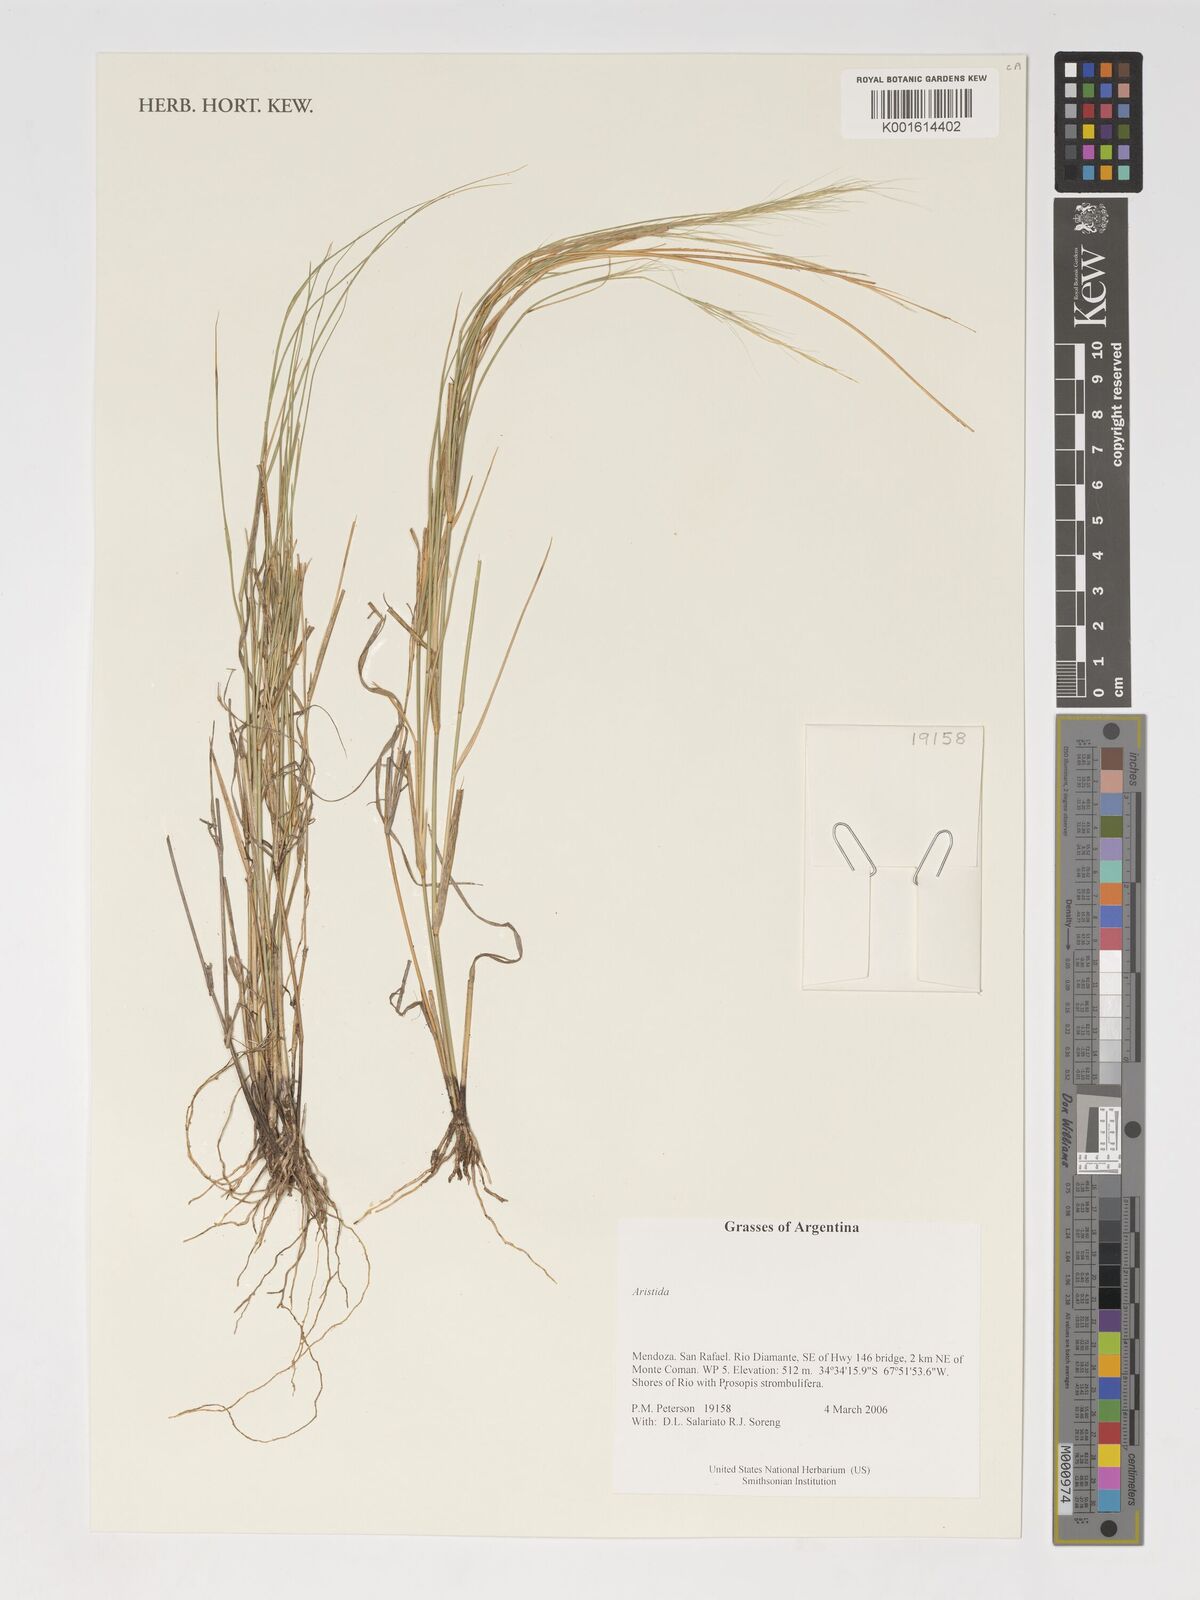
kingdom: Plantae
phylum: Tracheophyta
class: Liliopsida
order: Poales
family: Poaceae
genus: Aristida
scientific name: Aristida
